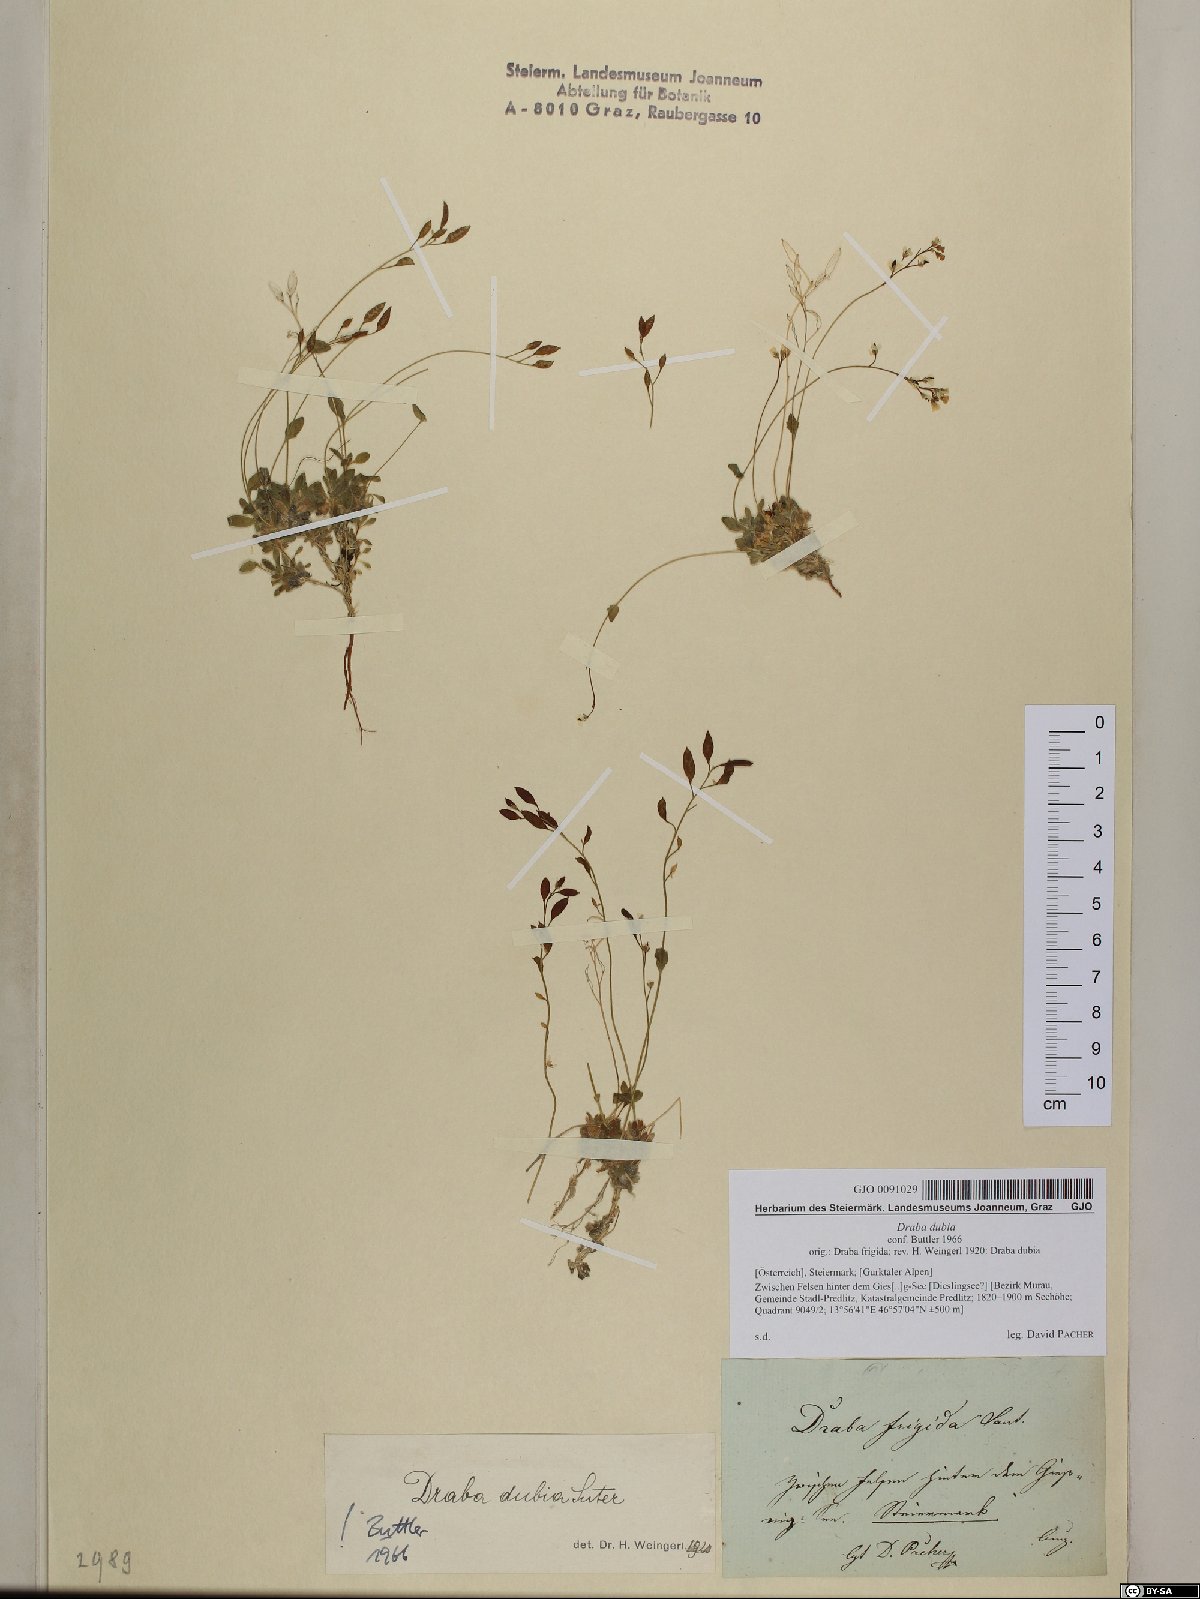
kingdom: Plantae
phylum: Tracheophyta
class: Magnoliopsida
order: Brassicales
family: Brassicaceae
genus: Draba
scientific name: Draba dubia
